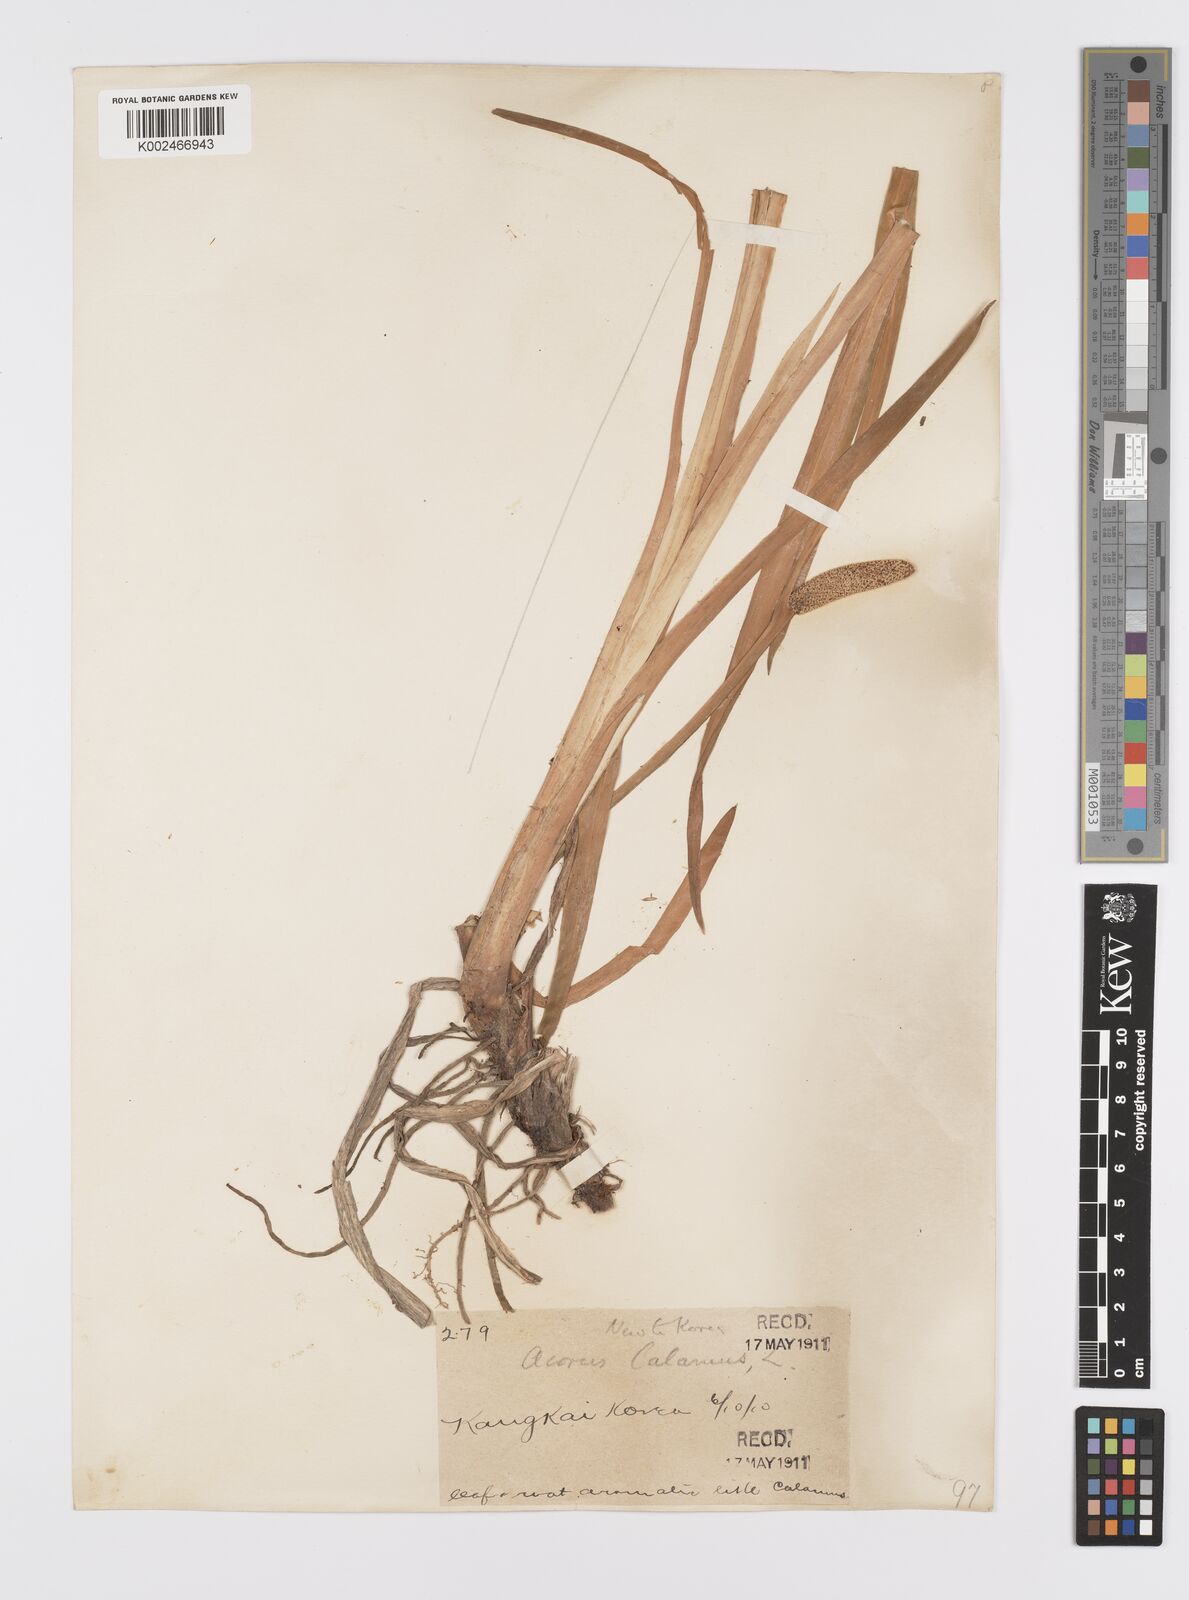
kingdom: Plantae
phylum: Tracheophyta
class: Liliopsida
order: Acorales
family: Acoraceae
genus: Acorus
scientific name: Acorus calamus
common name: Sweet-flag
